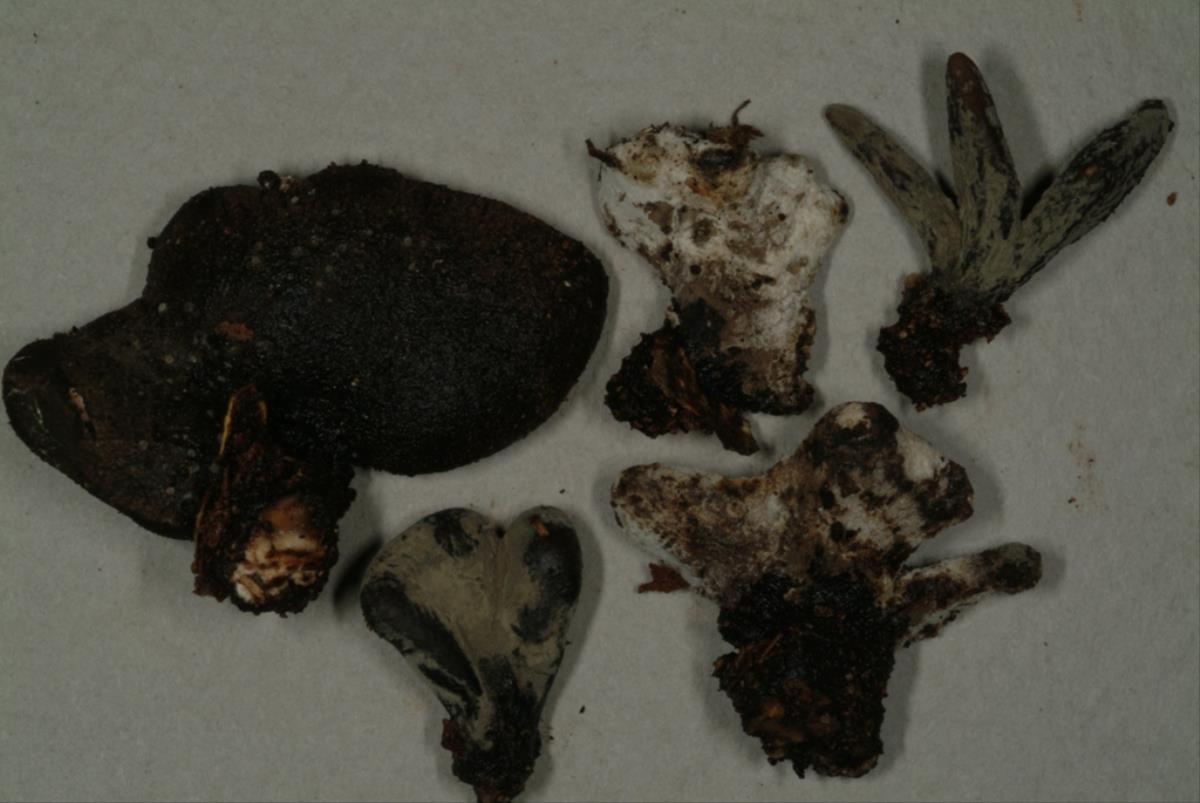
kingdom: Fungi
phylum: Ascomycota
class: Sordariomycetes
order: Xylariales
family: Xylariaceae
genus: Xylaria
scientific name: Xylaria schweinitzii
